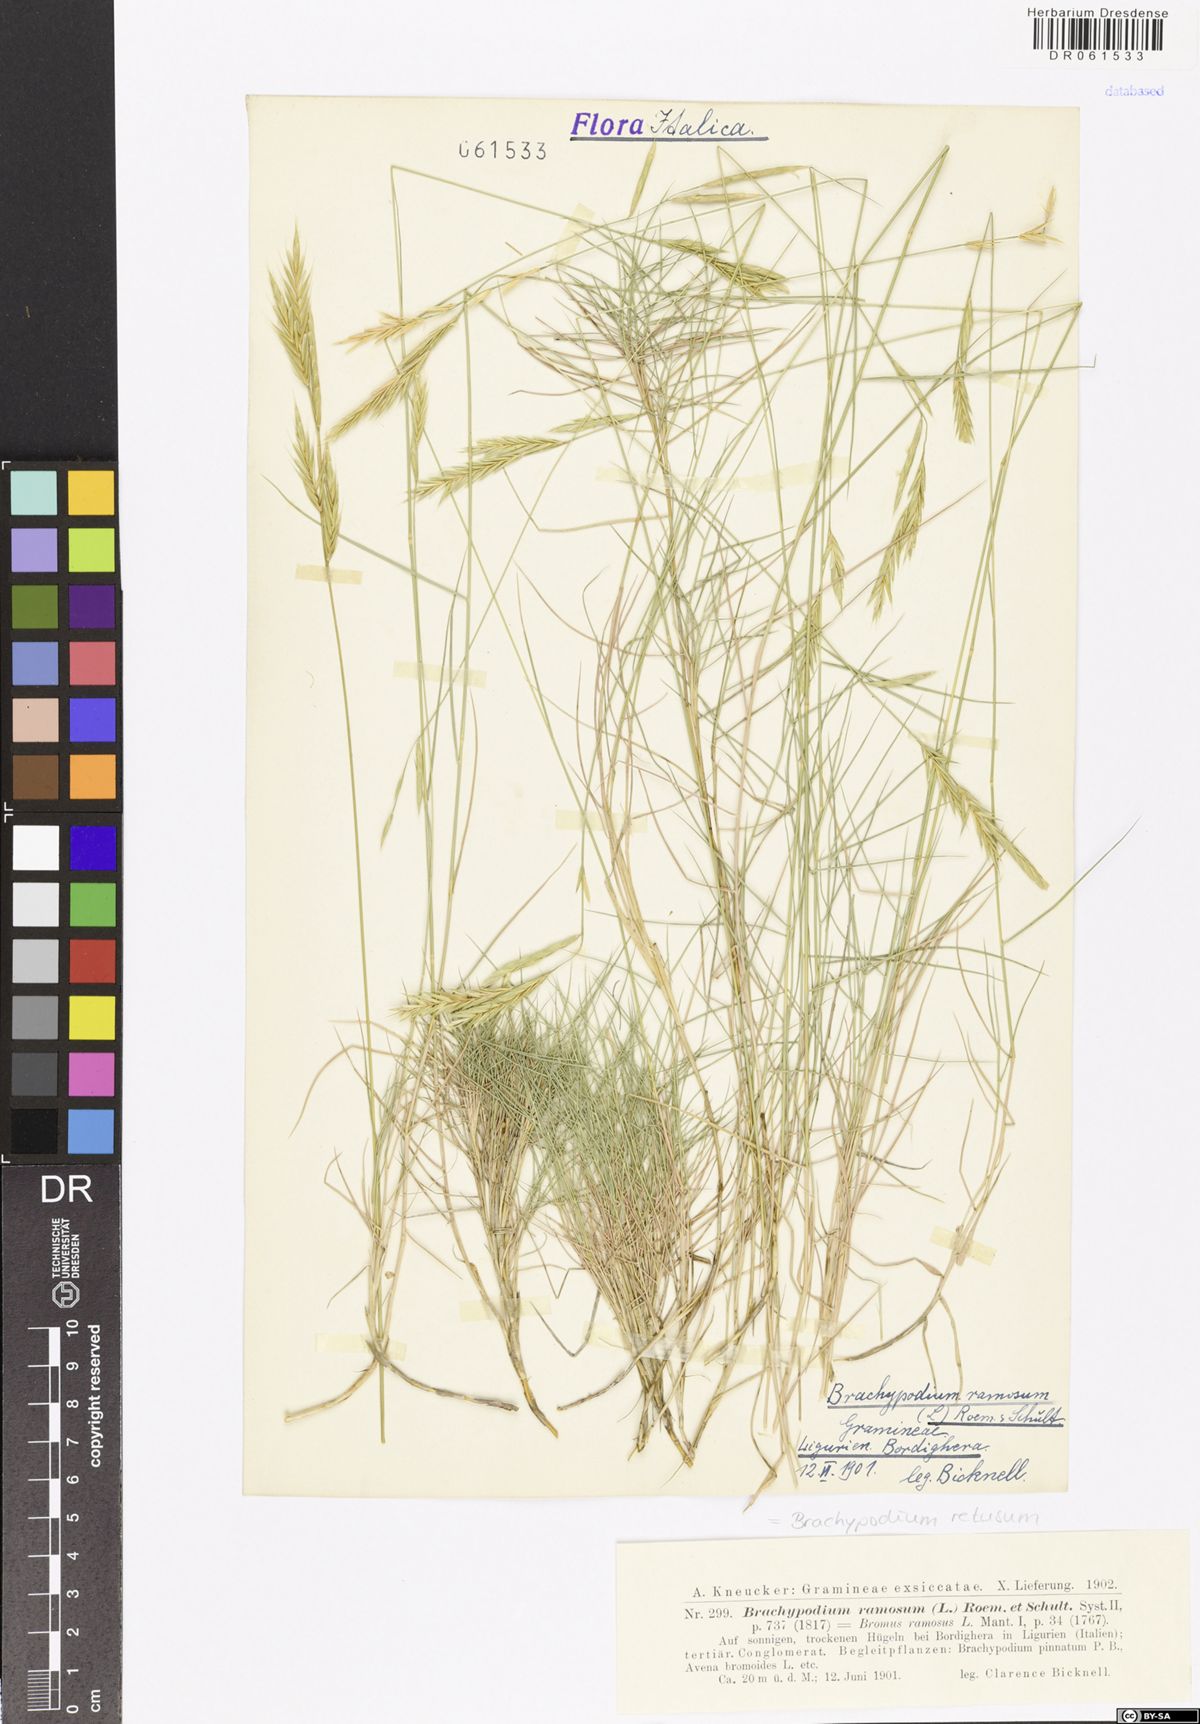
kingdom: Plantae
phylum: Tracheophyta
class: Liliopsida
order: Poales
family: Poaceae
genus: Brachypodium
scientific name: Brachypodium retusum
